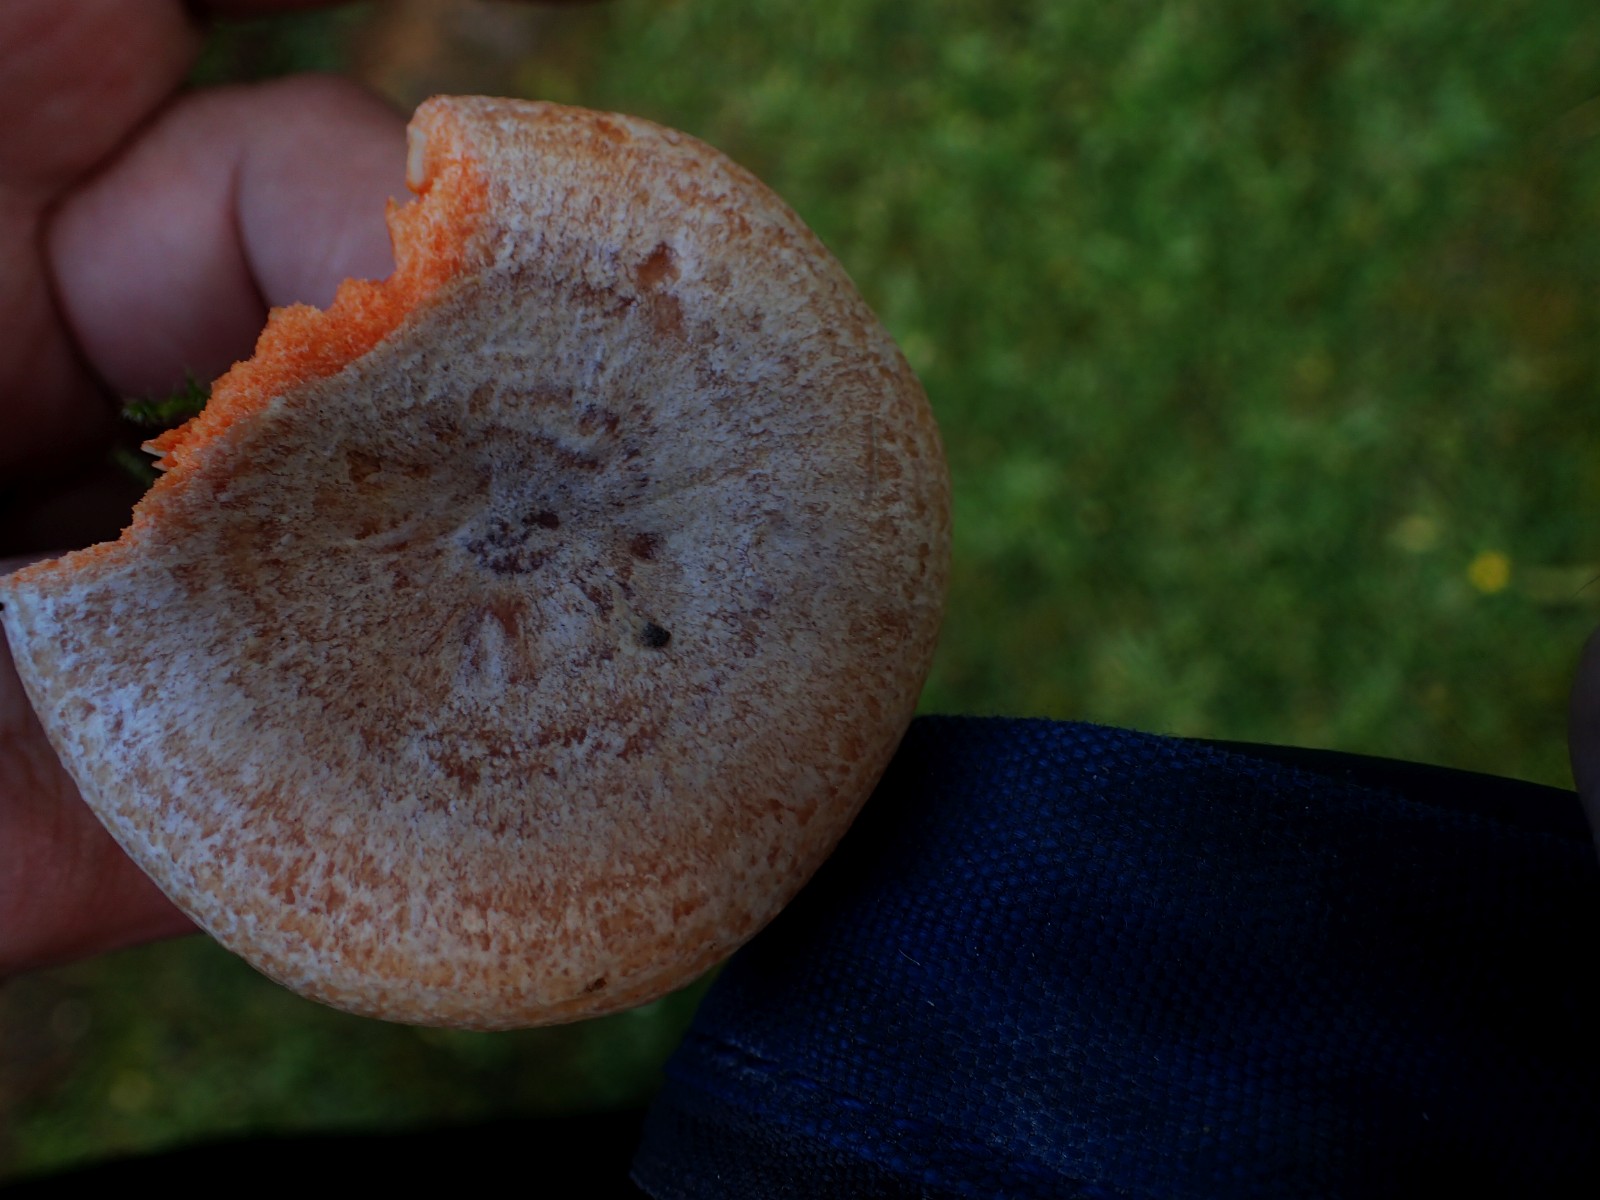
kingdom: Fungi
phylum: Basidiomycota
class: Agaricomycetes
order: Russulales
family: Russulaceae
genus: Lactarius
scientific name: Lactarius
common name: mælkehat
